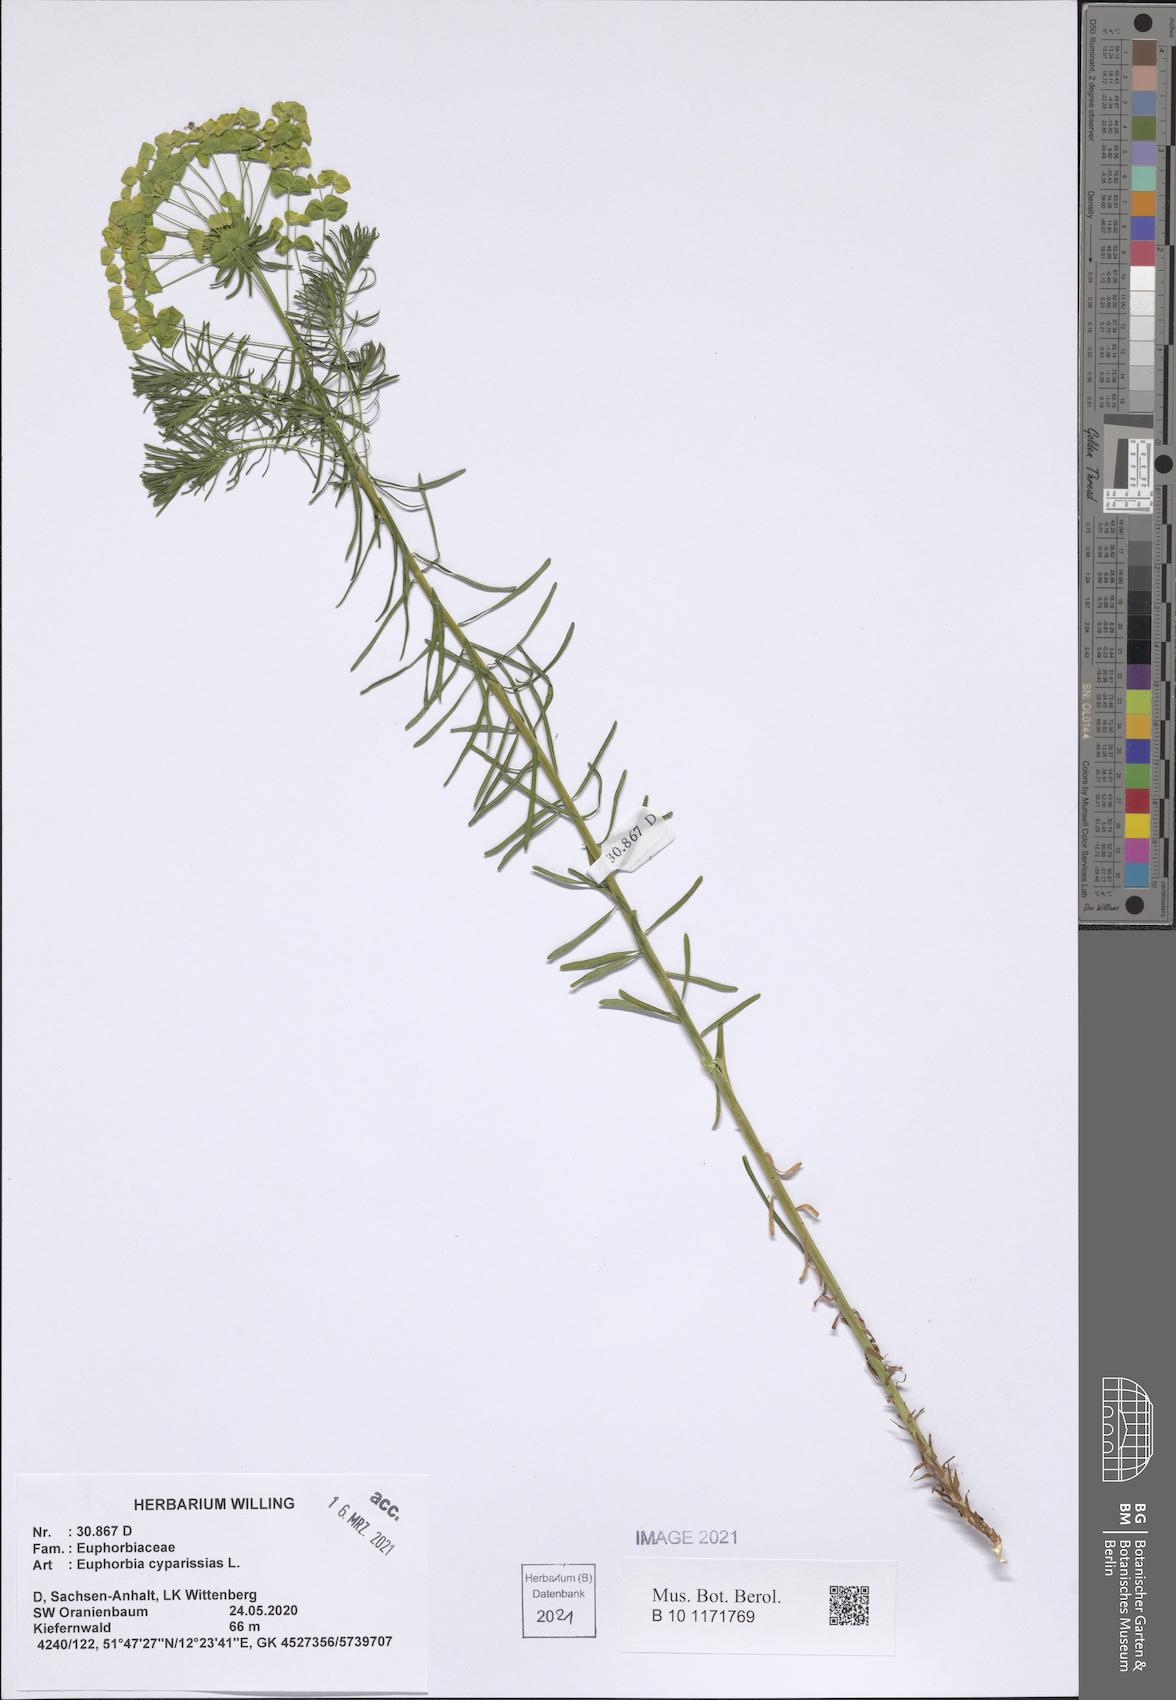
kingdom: Plantae
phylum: Tracheophyta
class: Magnoliopsida
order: Malpighiales
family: Euphorbiaceae
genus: Euphorbia
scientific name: Euphorbia cyparissias
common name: Cypress spurge
